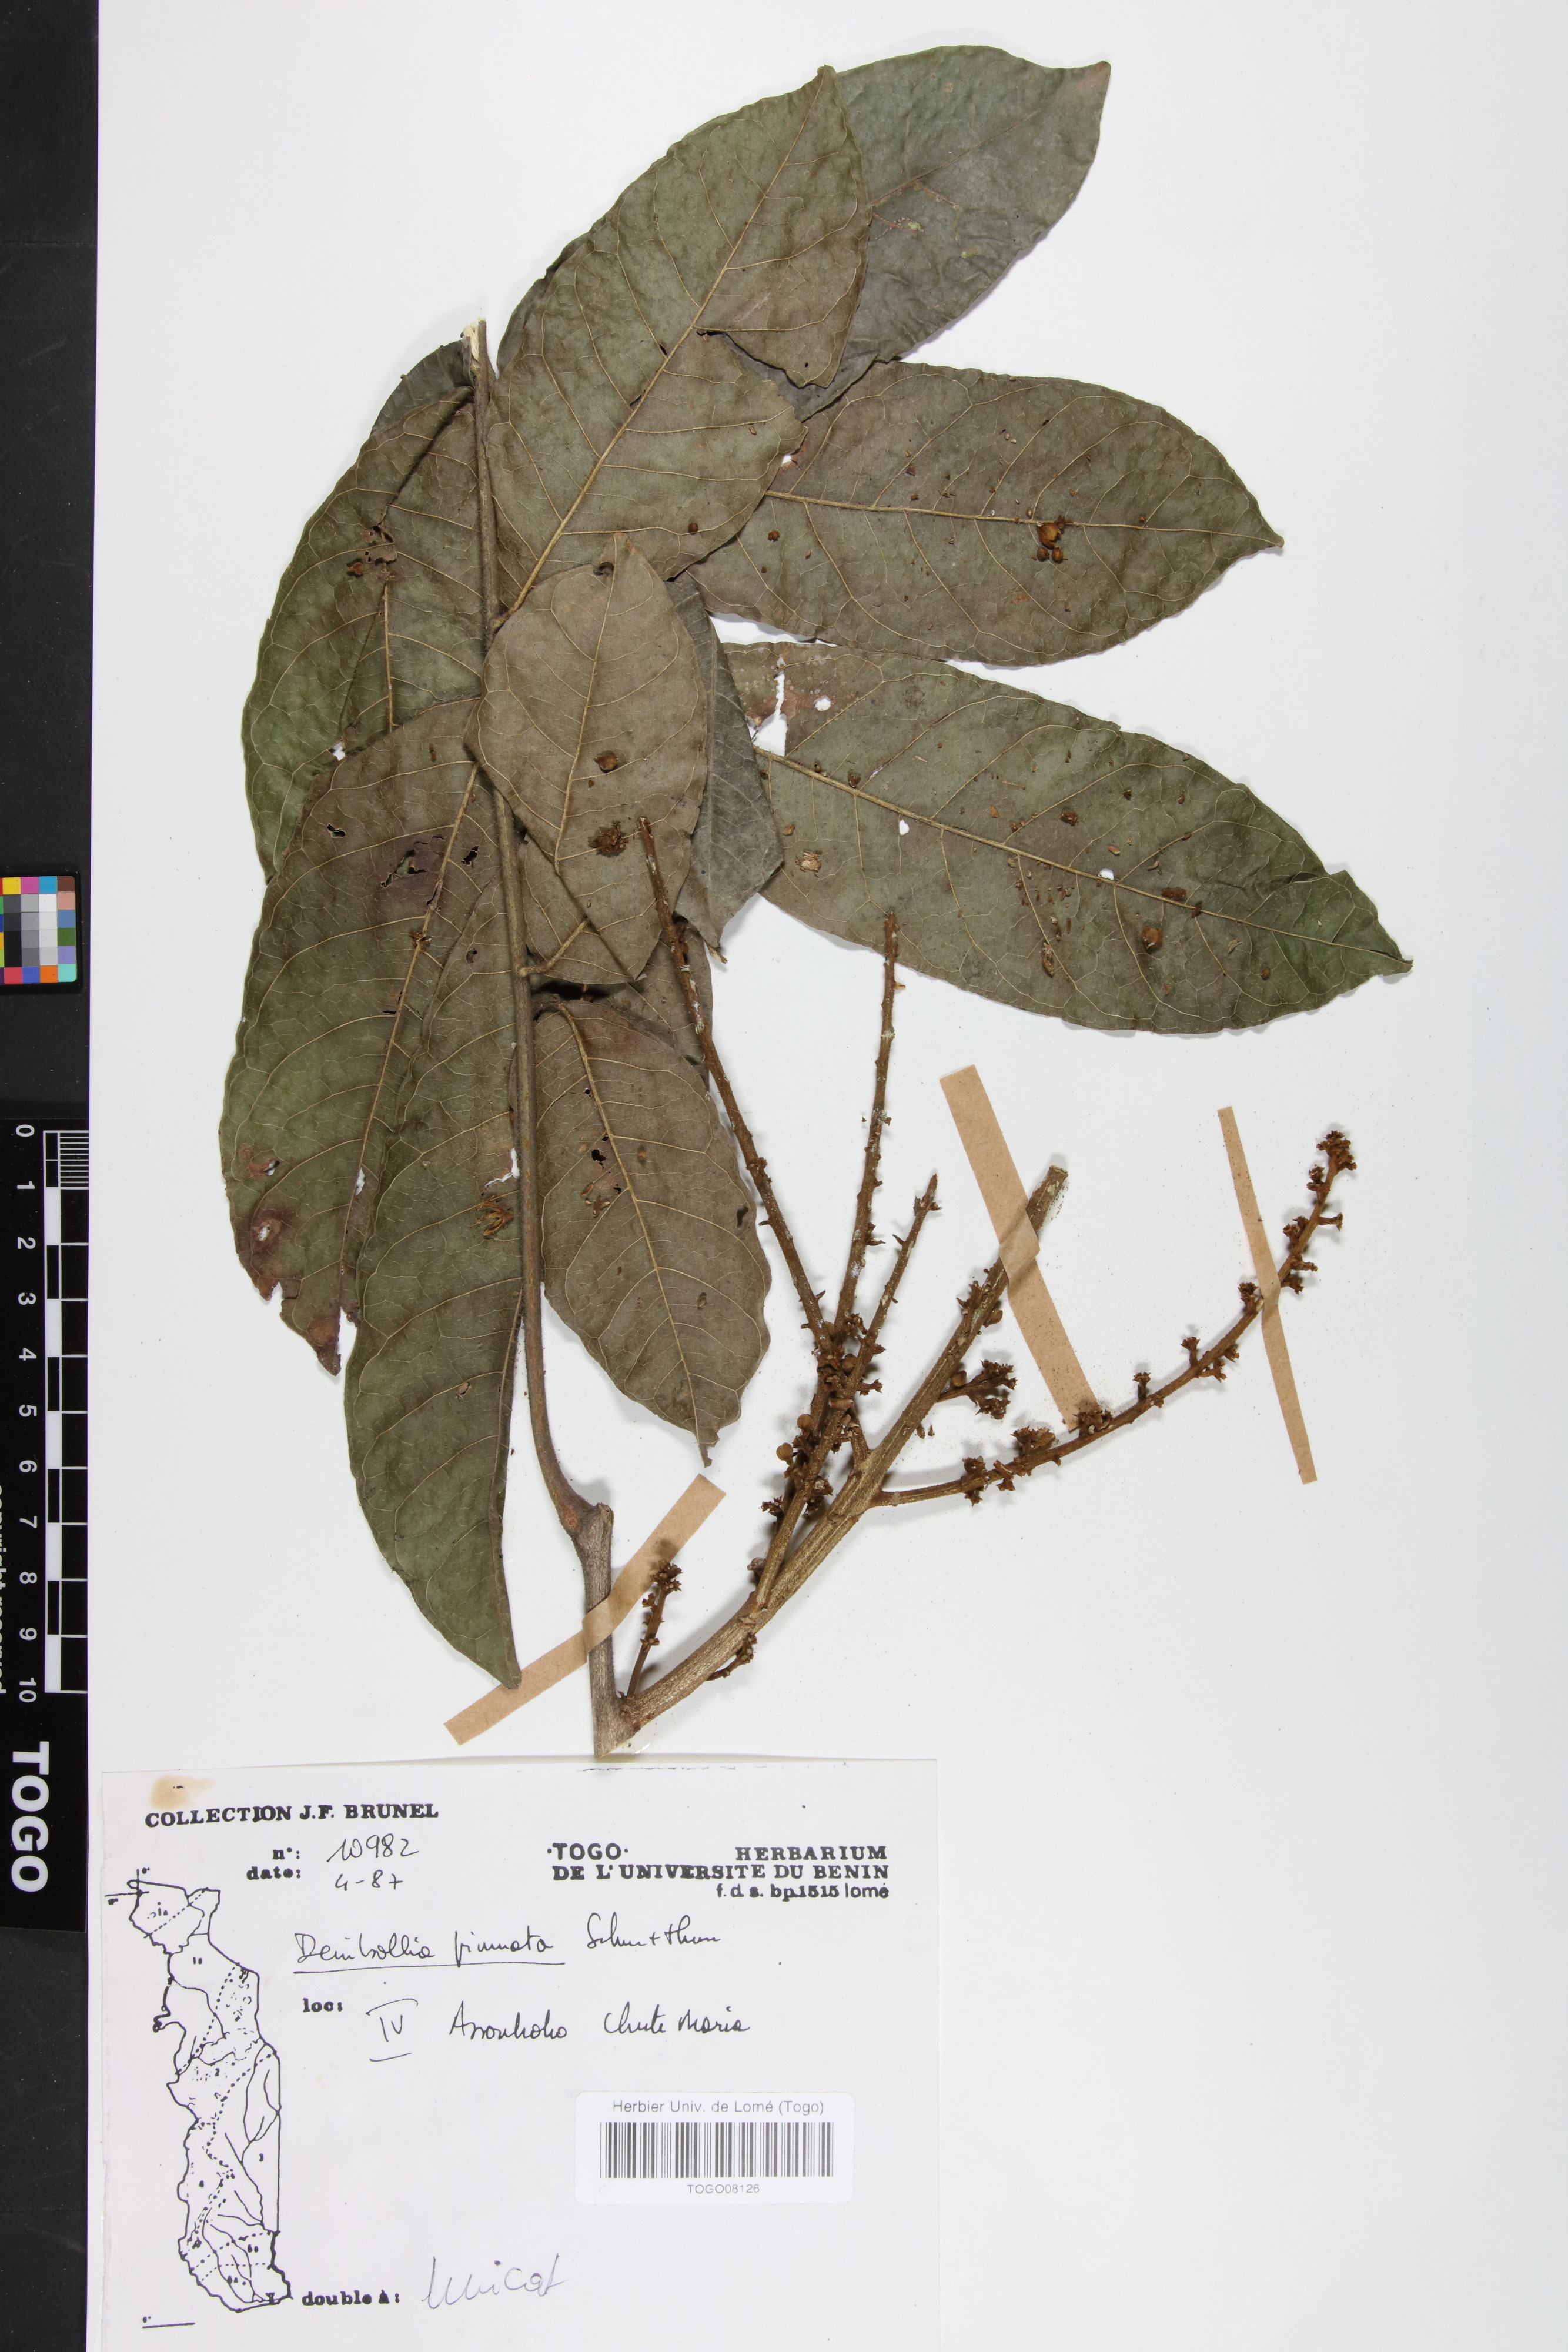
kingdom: Plantae
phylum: Tracheophyta
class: Magnoliopsida
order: Sapindales
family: Sapindaceae
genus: Deinbollia
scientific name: Deinbollia pinnata
